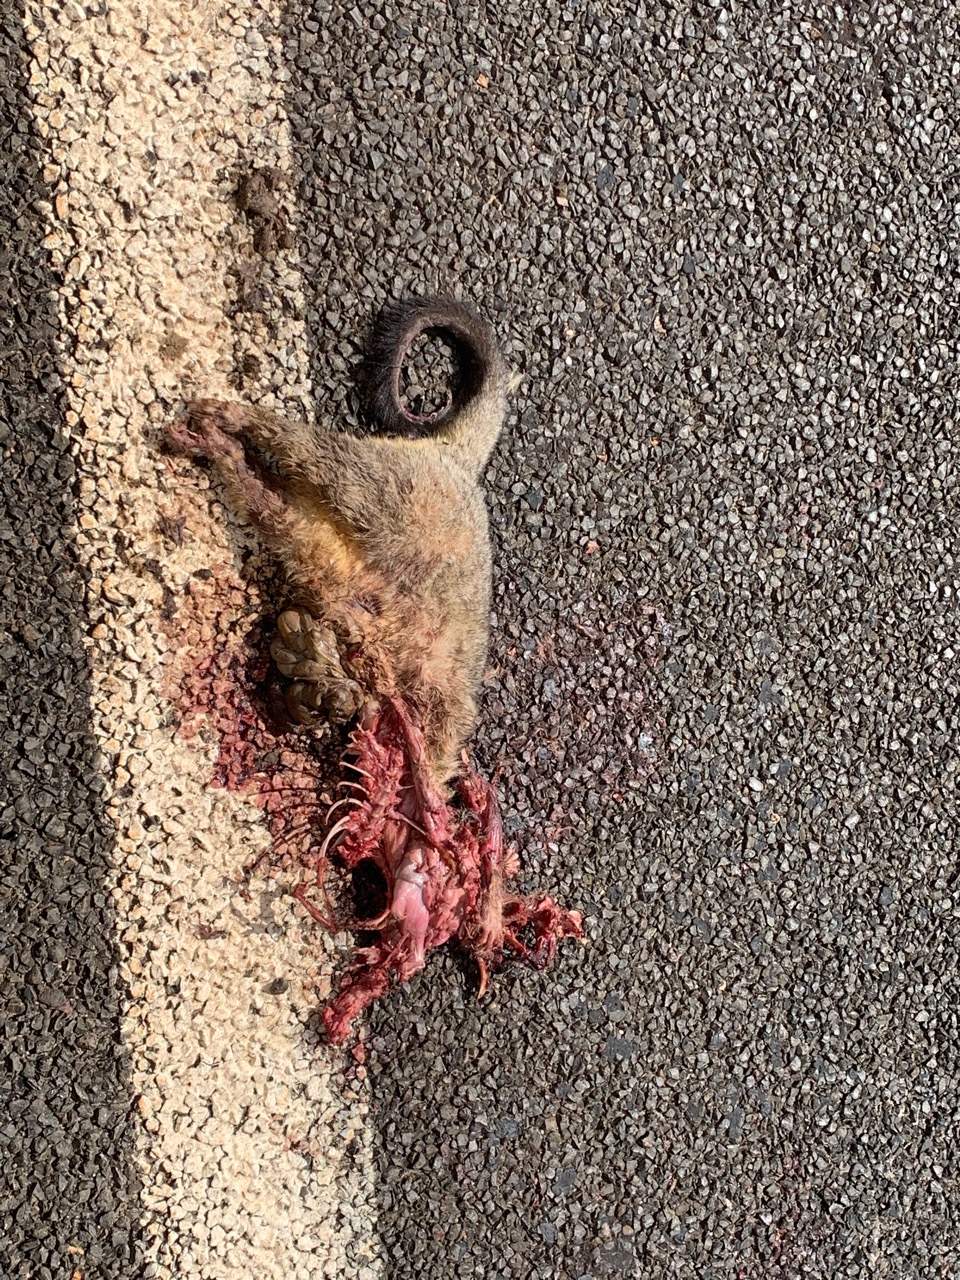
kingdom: Animalia
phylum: Chordata
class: Mammalia
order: Diprotodontia
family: Phalangeridae
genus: Trichosurus
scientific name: Trichosurus
